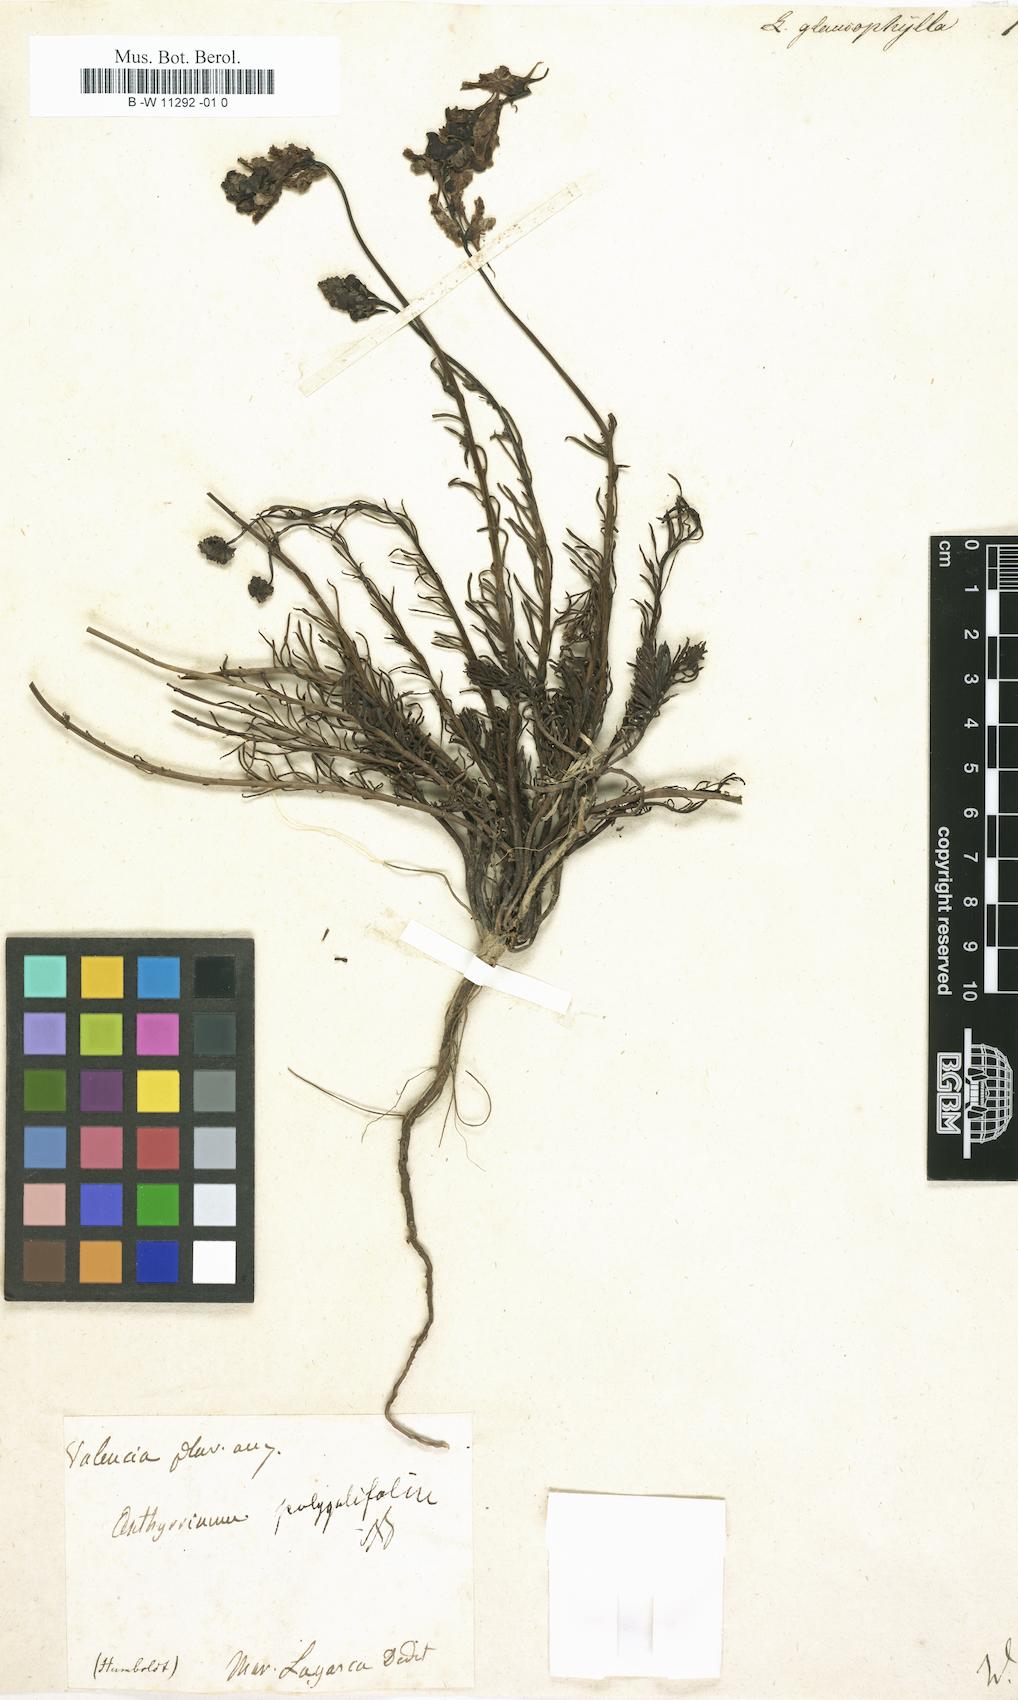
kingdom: Plantae
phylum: Tracheophyta
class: Magnoliopsida
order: Lamiales
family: Plantaginaceae
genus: Linaria
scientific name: Linaria
